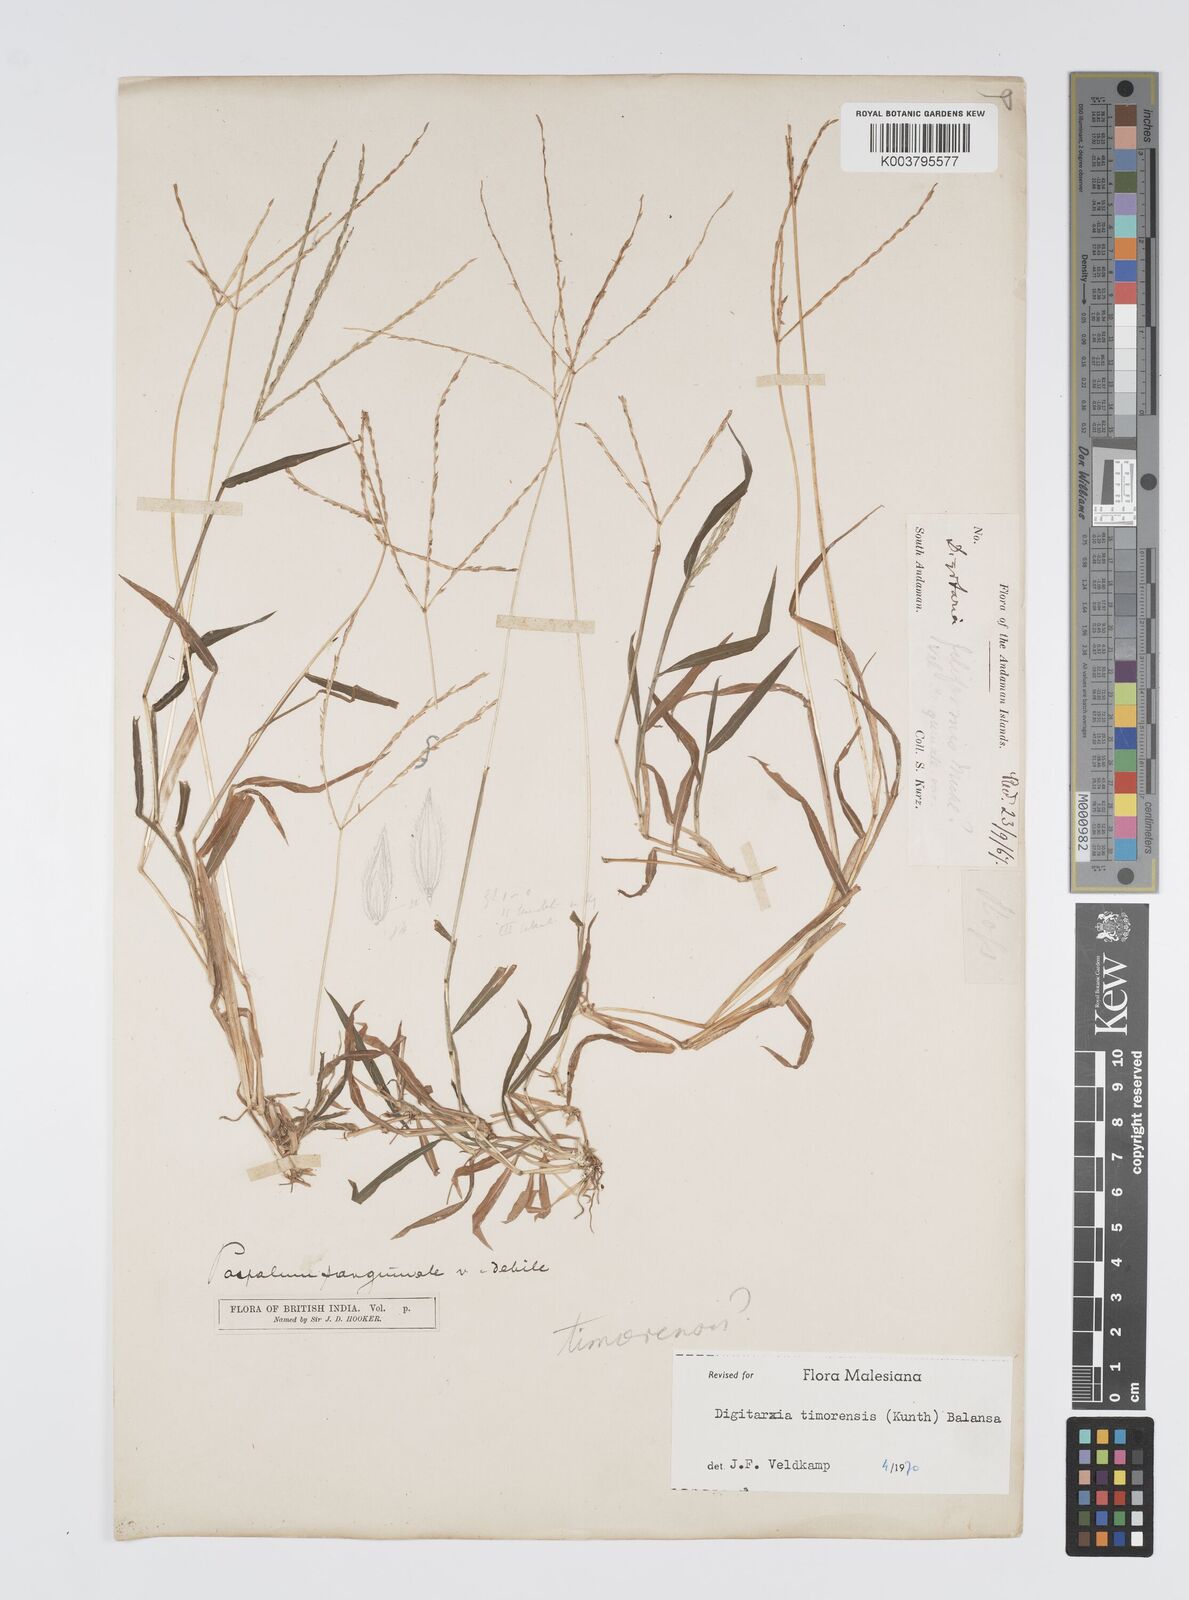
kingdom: Plantae
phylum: Tracheophyta
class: Liliopsida
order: Poales
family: Poaceae
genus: Digitaria
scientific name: Digitaria radicosa
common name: Trailing crabgrass
